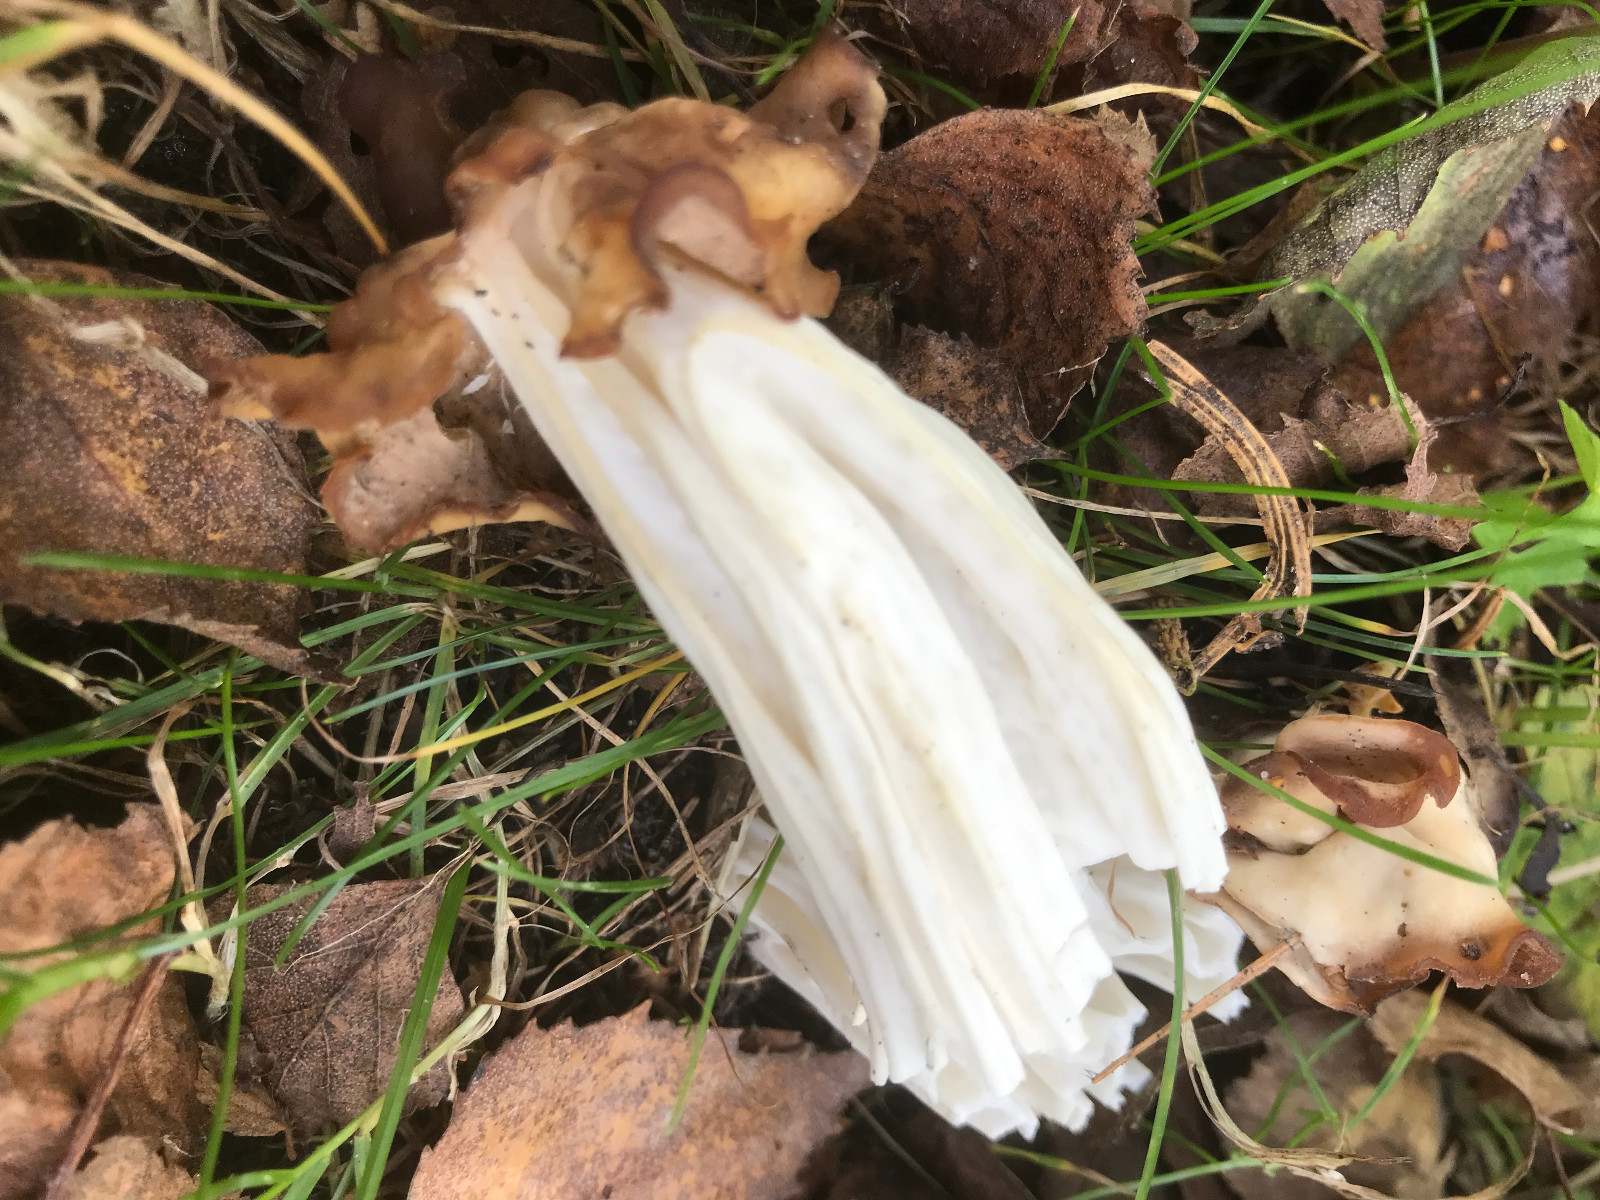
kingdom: Fungi
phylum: Ascomycota
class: Pezizomycetes
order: Pezizales
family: Helvellaceae
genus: Helvella
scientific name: Helvella crispa
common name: kruset foldhat
